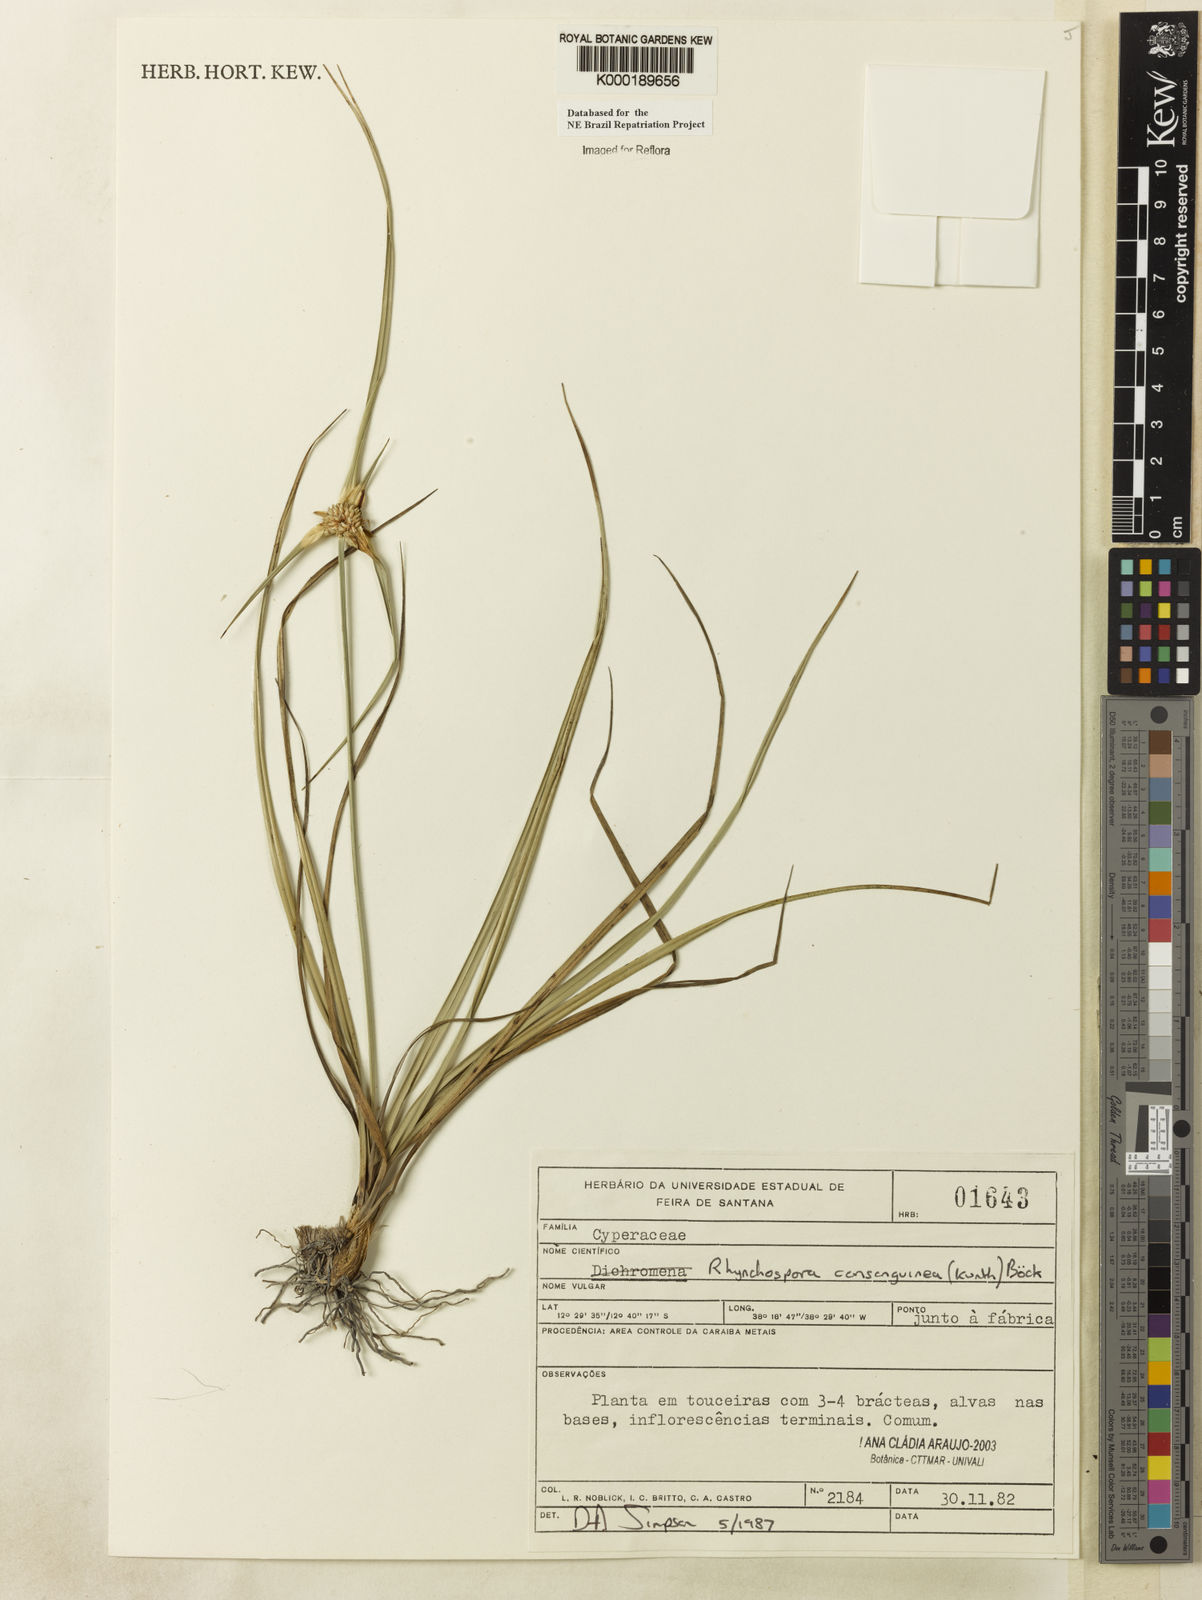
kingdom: Plantae
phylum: Tracheophyta
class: Liliopsida
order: Poales
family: Cyperaceae
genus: Rhynchospora
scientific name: Rhynchospora consanguinea
